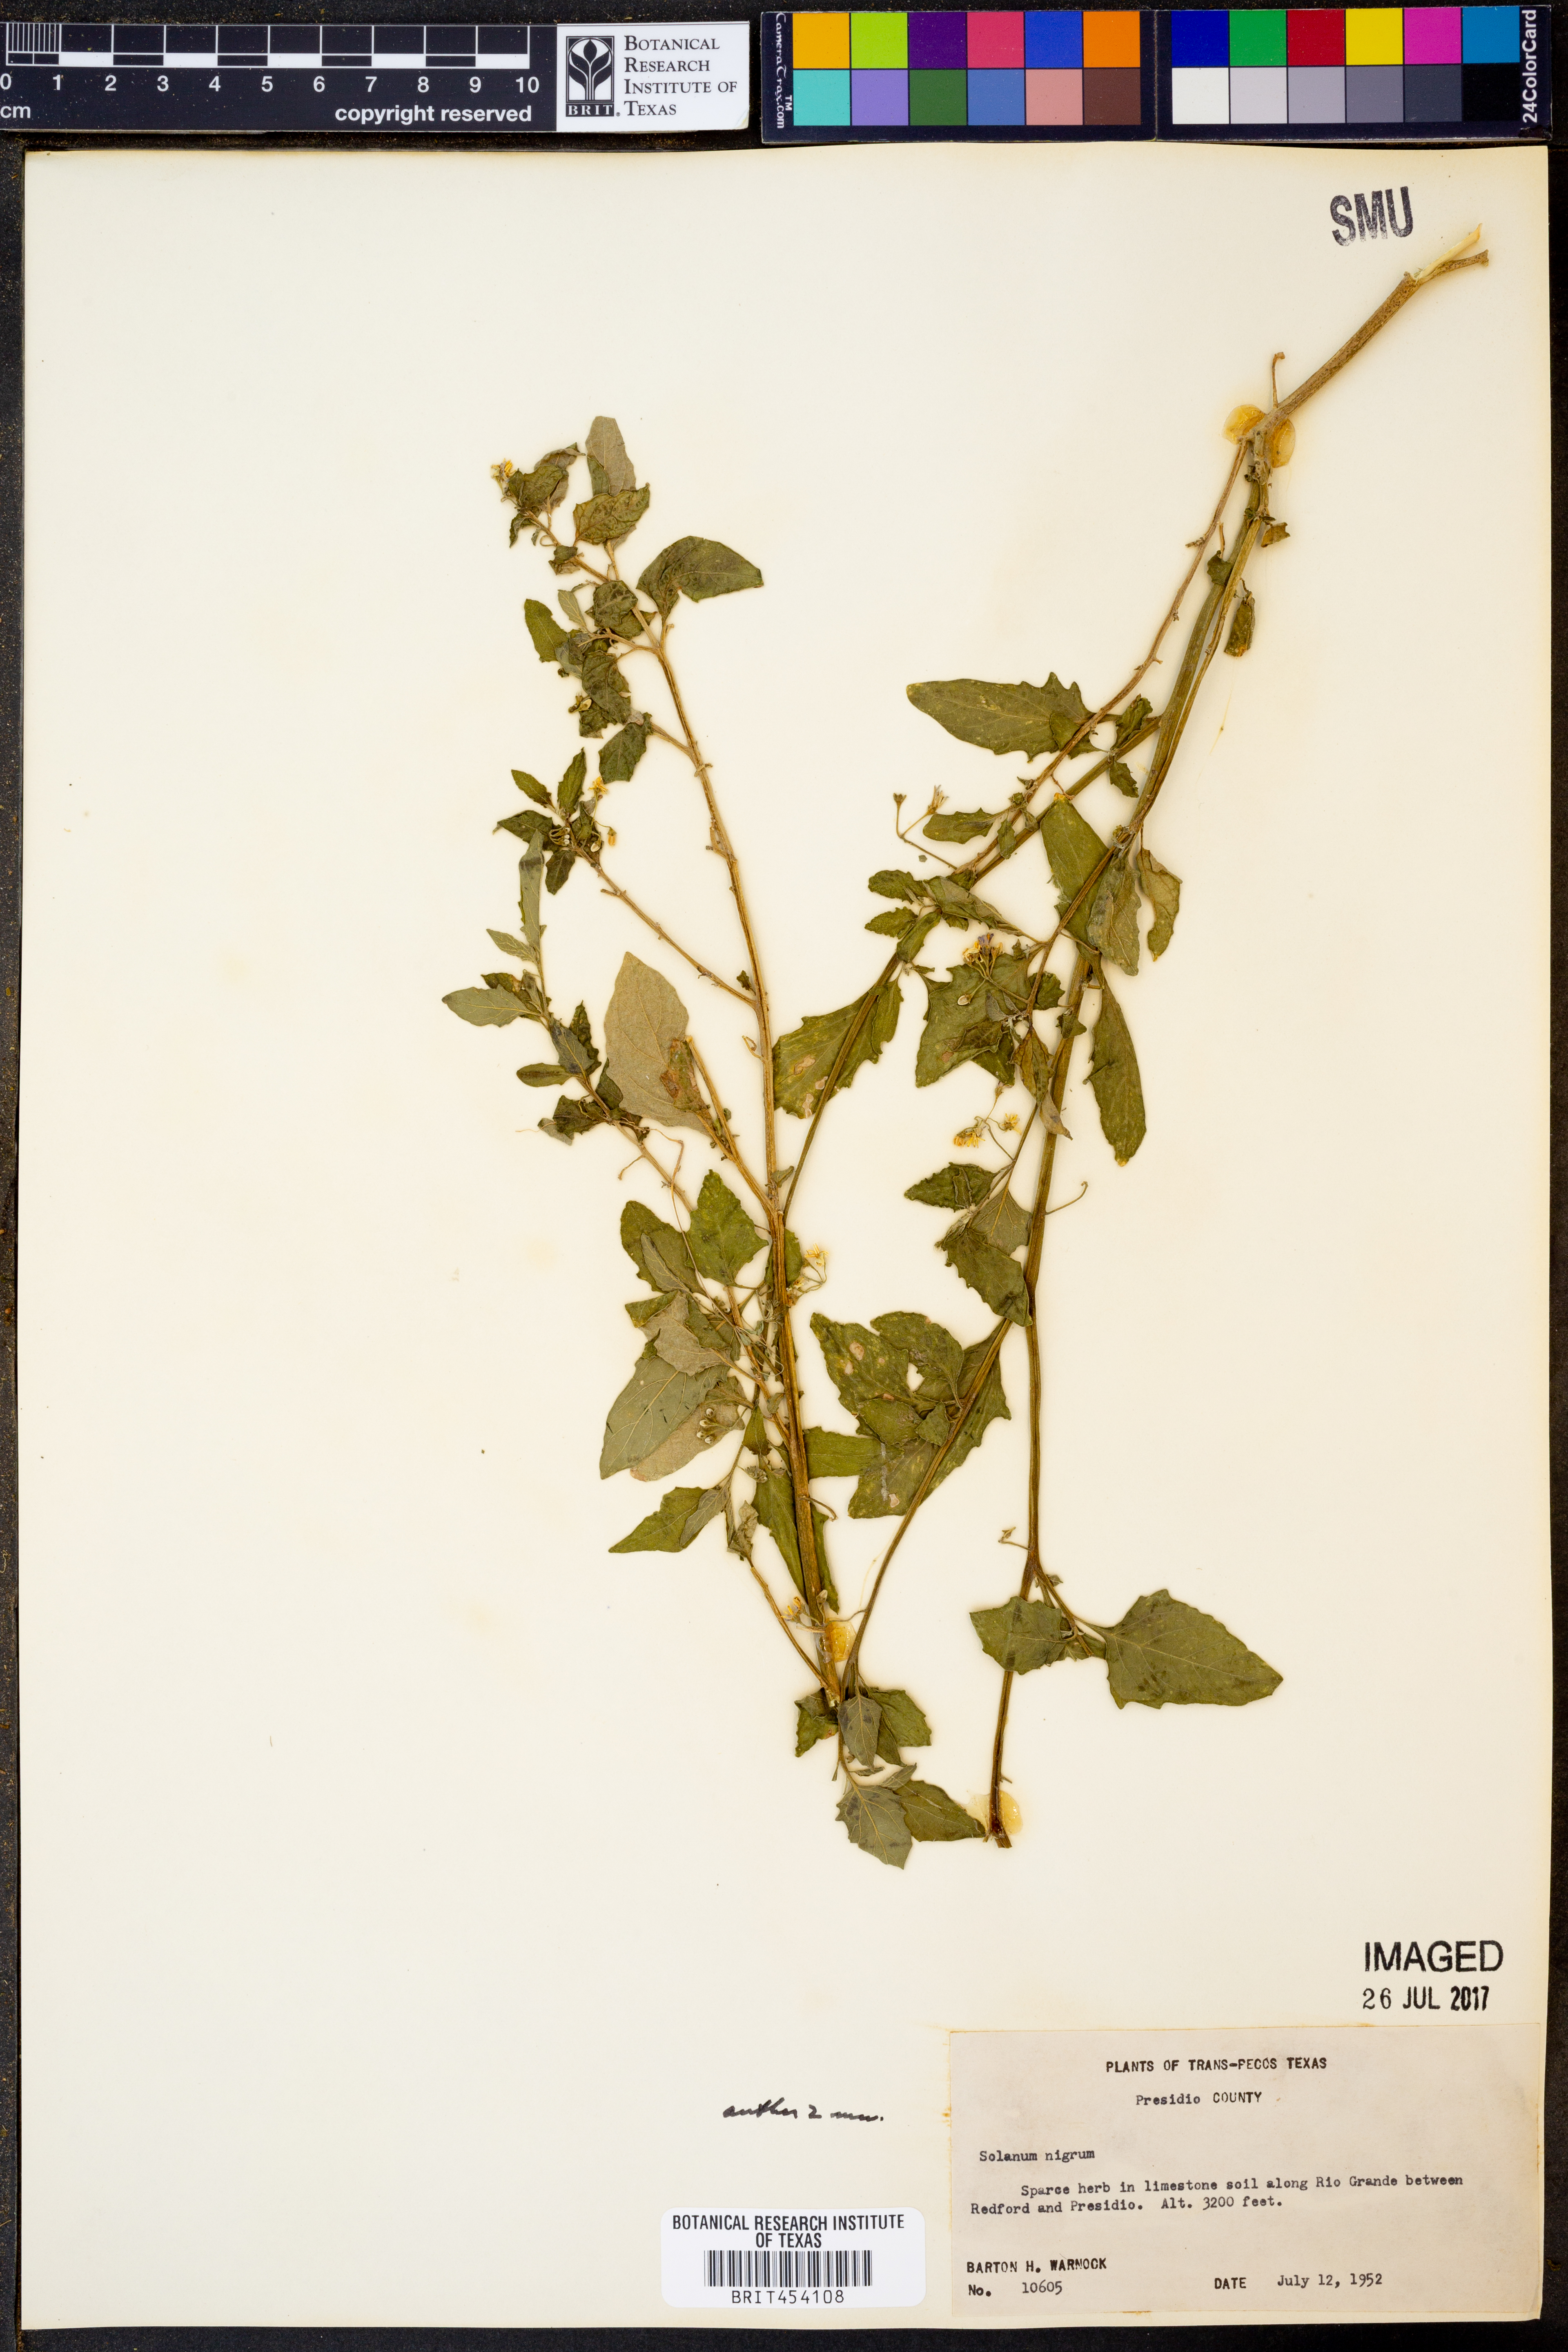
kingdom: Plantae
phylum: Tracheophyta
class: Magnoliopsida
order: Solanales
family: Solanaceae
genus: Solanum
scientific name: Solanum nigrum
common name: Black nightshade
